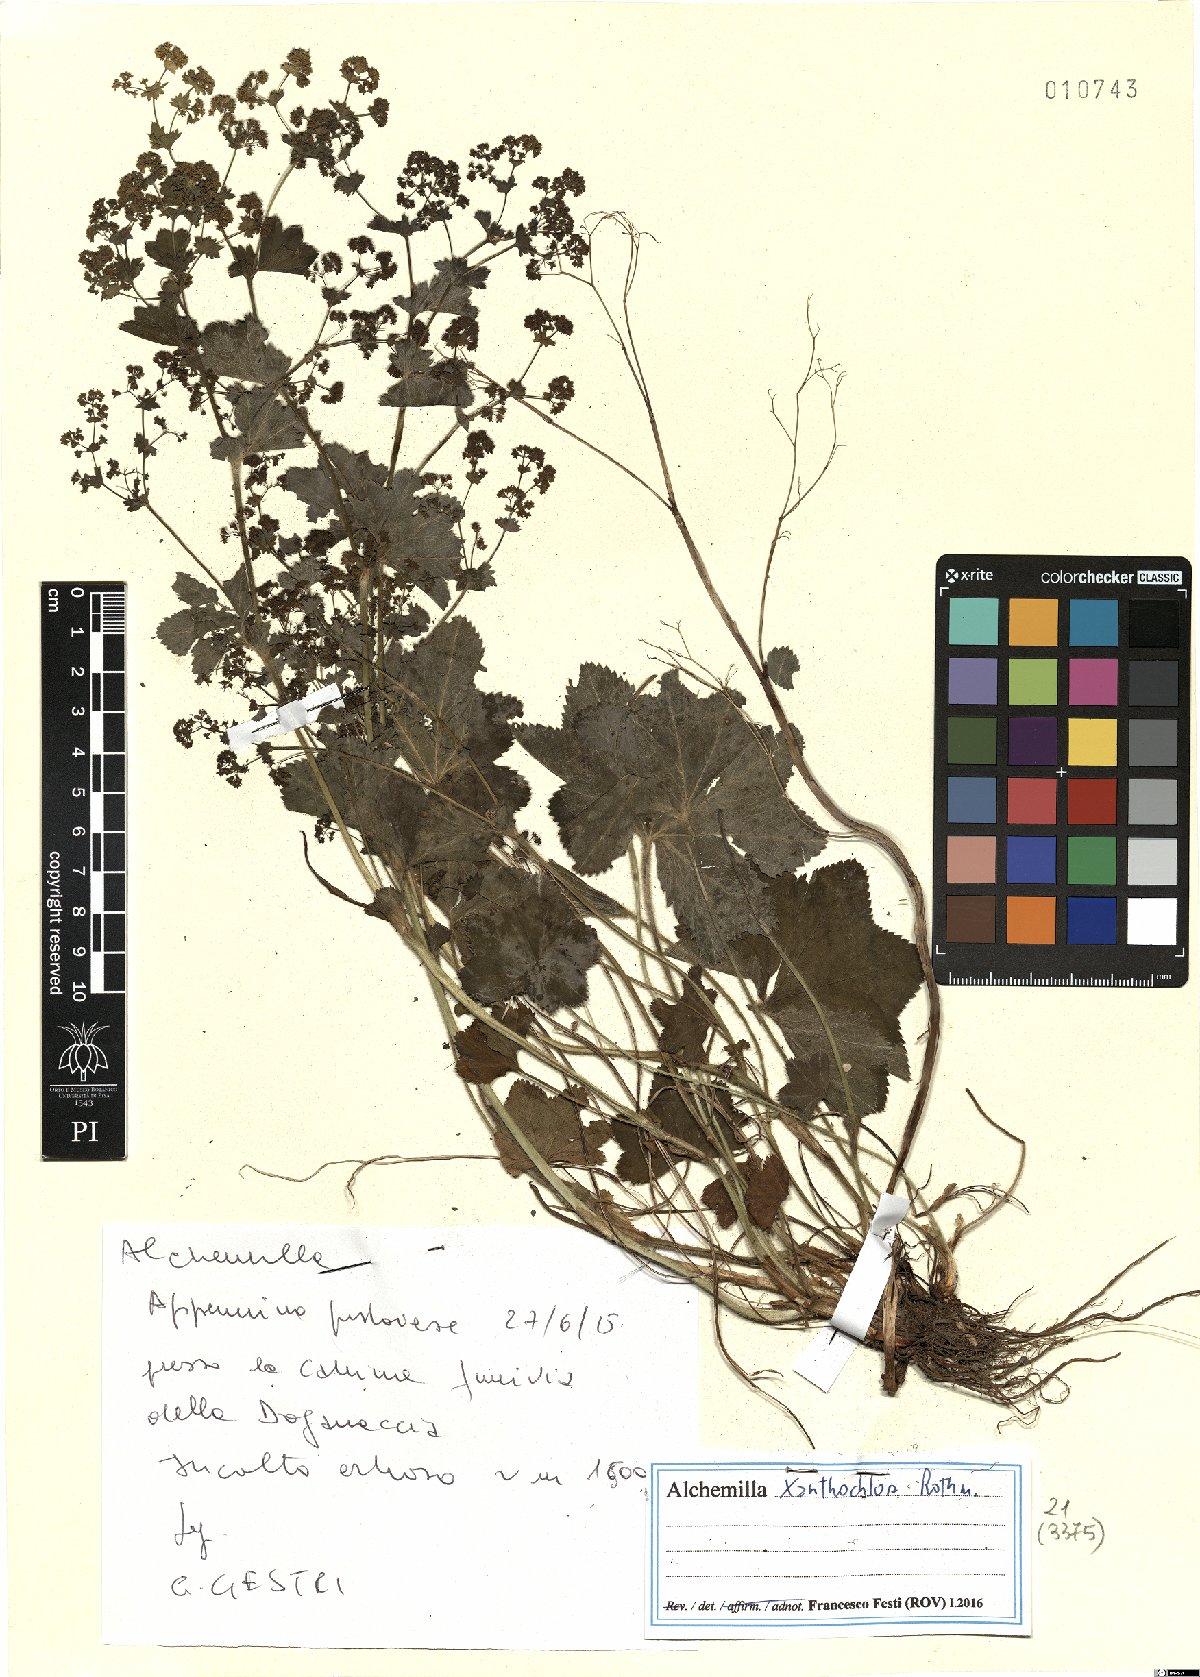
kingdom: Plantae
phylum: Tracheophyta
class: Magnoliopsida
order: Rosales
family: Rosaceae
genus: Alchemilla
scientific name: Alchemilla xanthochlora
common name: Intermediate lady's-mantle
